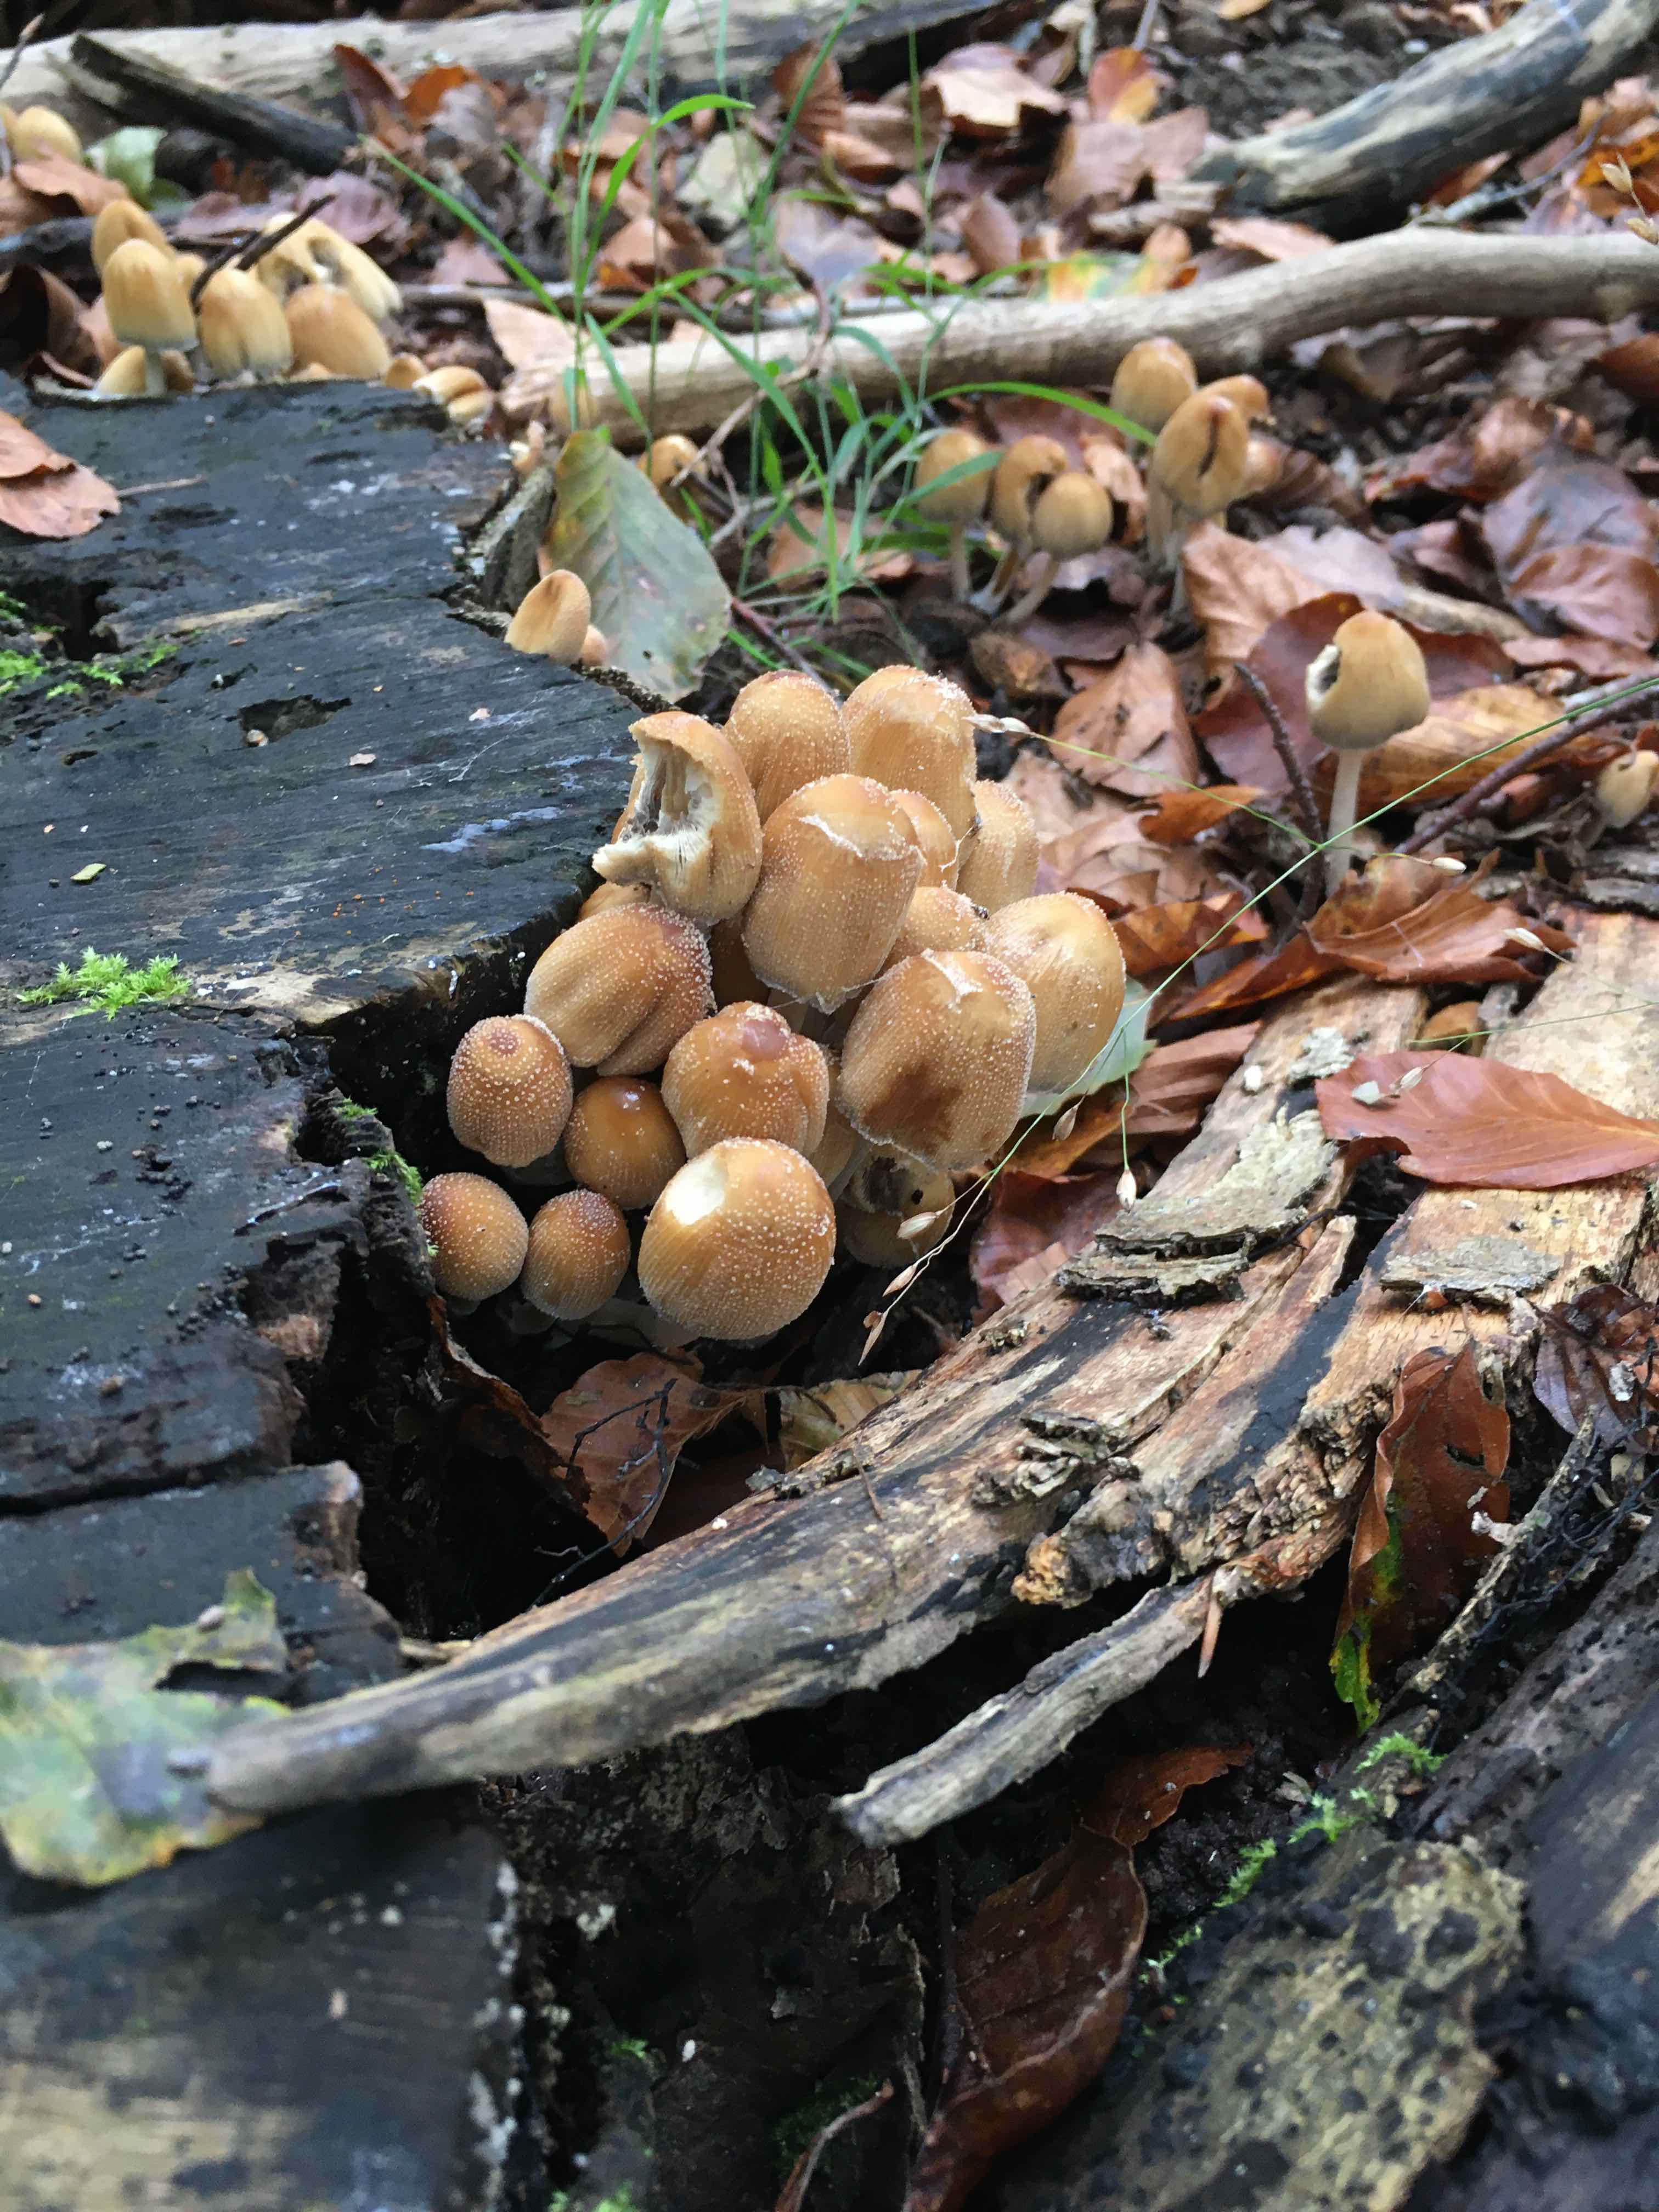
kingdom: Fungi
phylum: Basidiomycota
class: Agaricomycetes
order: Agaricales
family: Psathyrellaceae
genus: Coprinellus
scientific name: Coprinellus micaceus
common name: glimmer-blækhat
